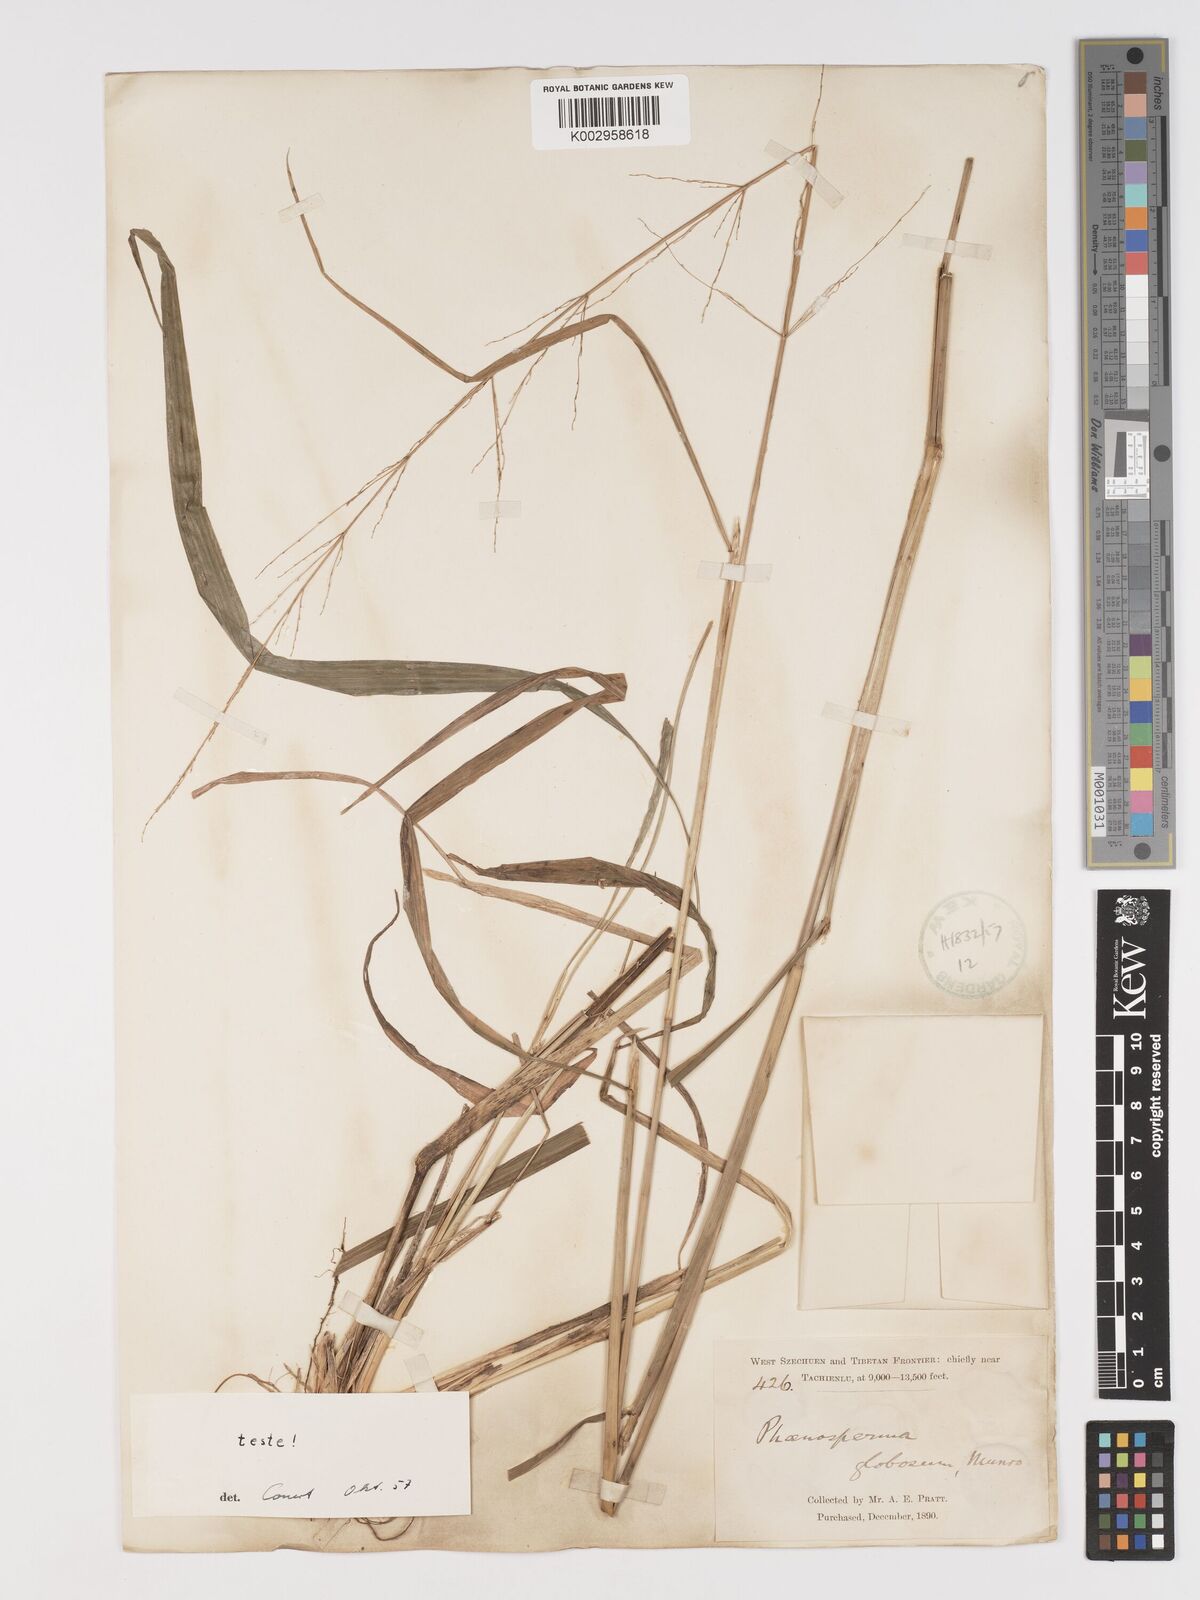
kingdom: Plantae
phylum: Tracheophyta
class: Liliopsida
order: Poales
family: Poaceae
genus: Phaenosperma
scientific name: Phaenosperma globosum
